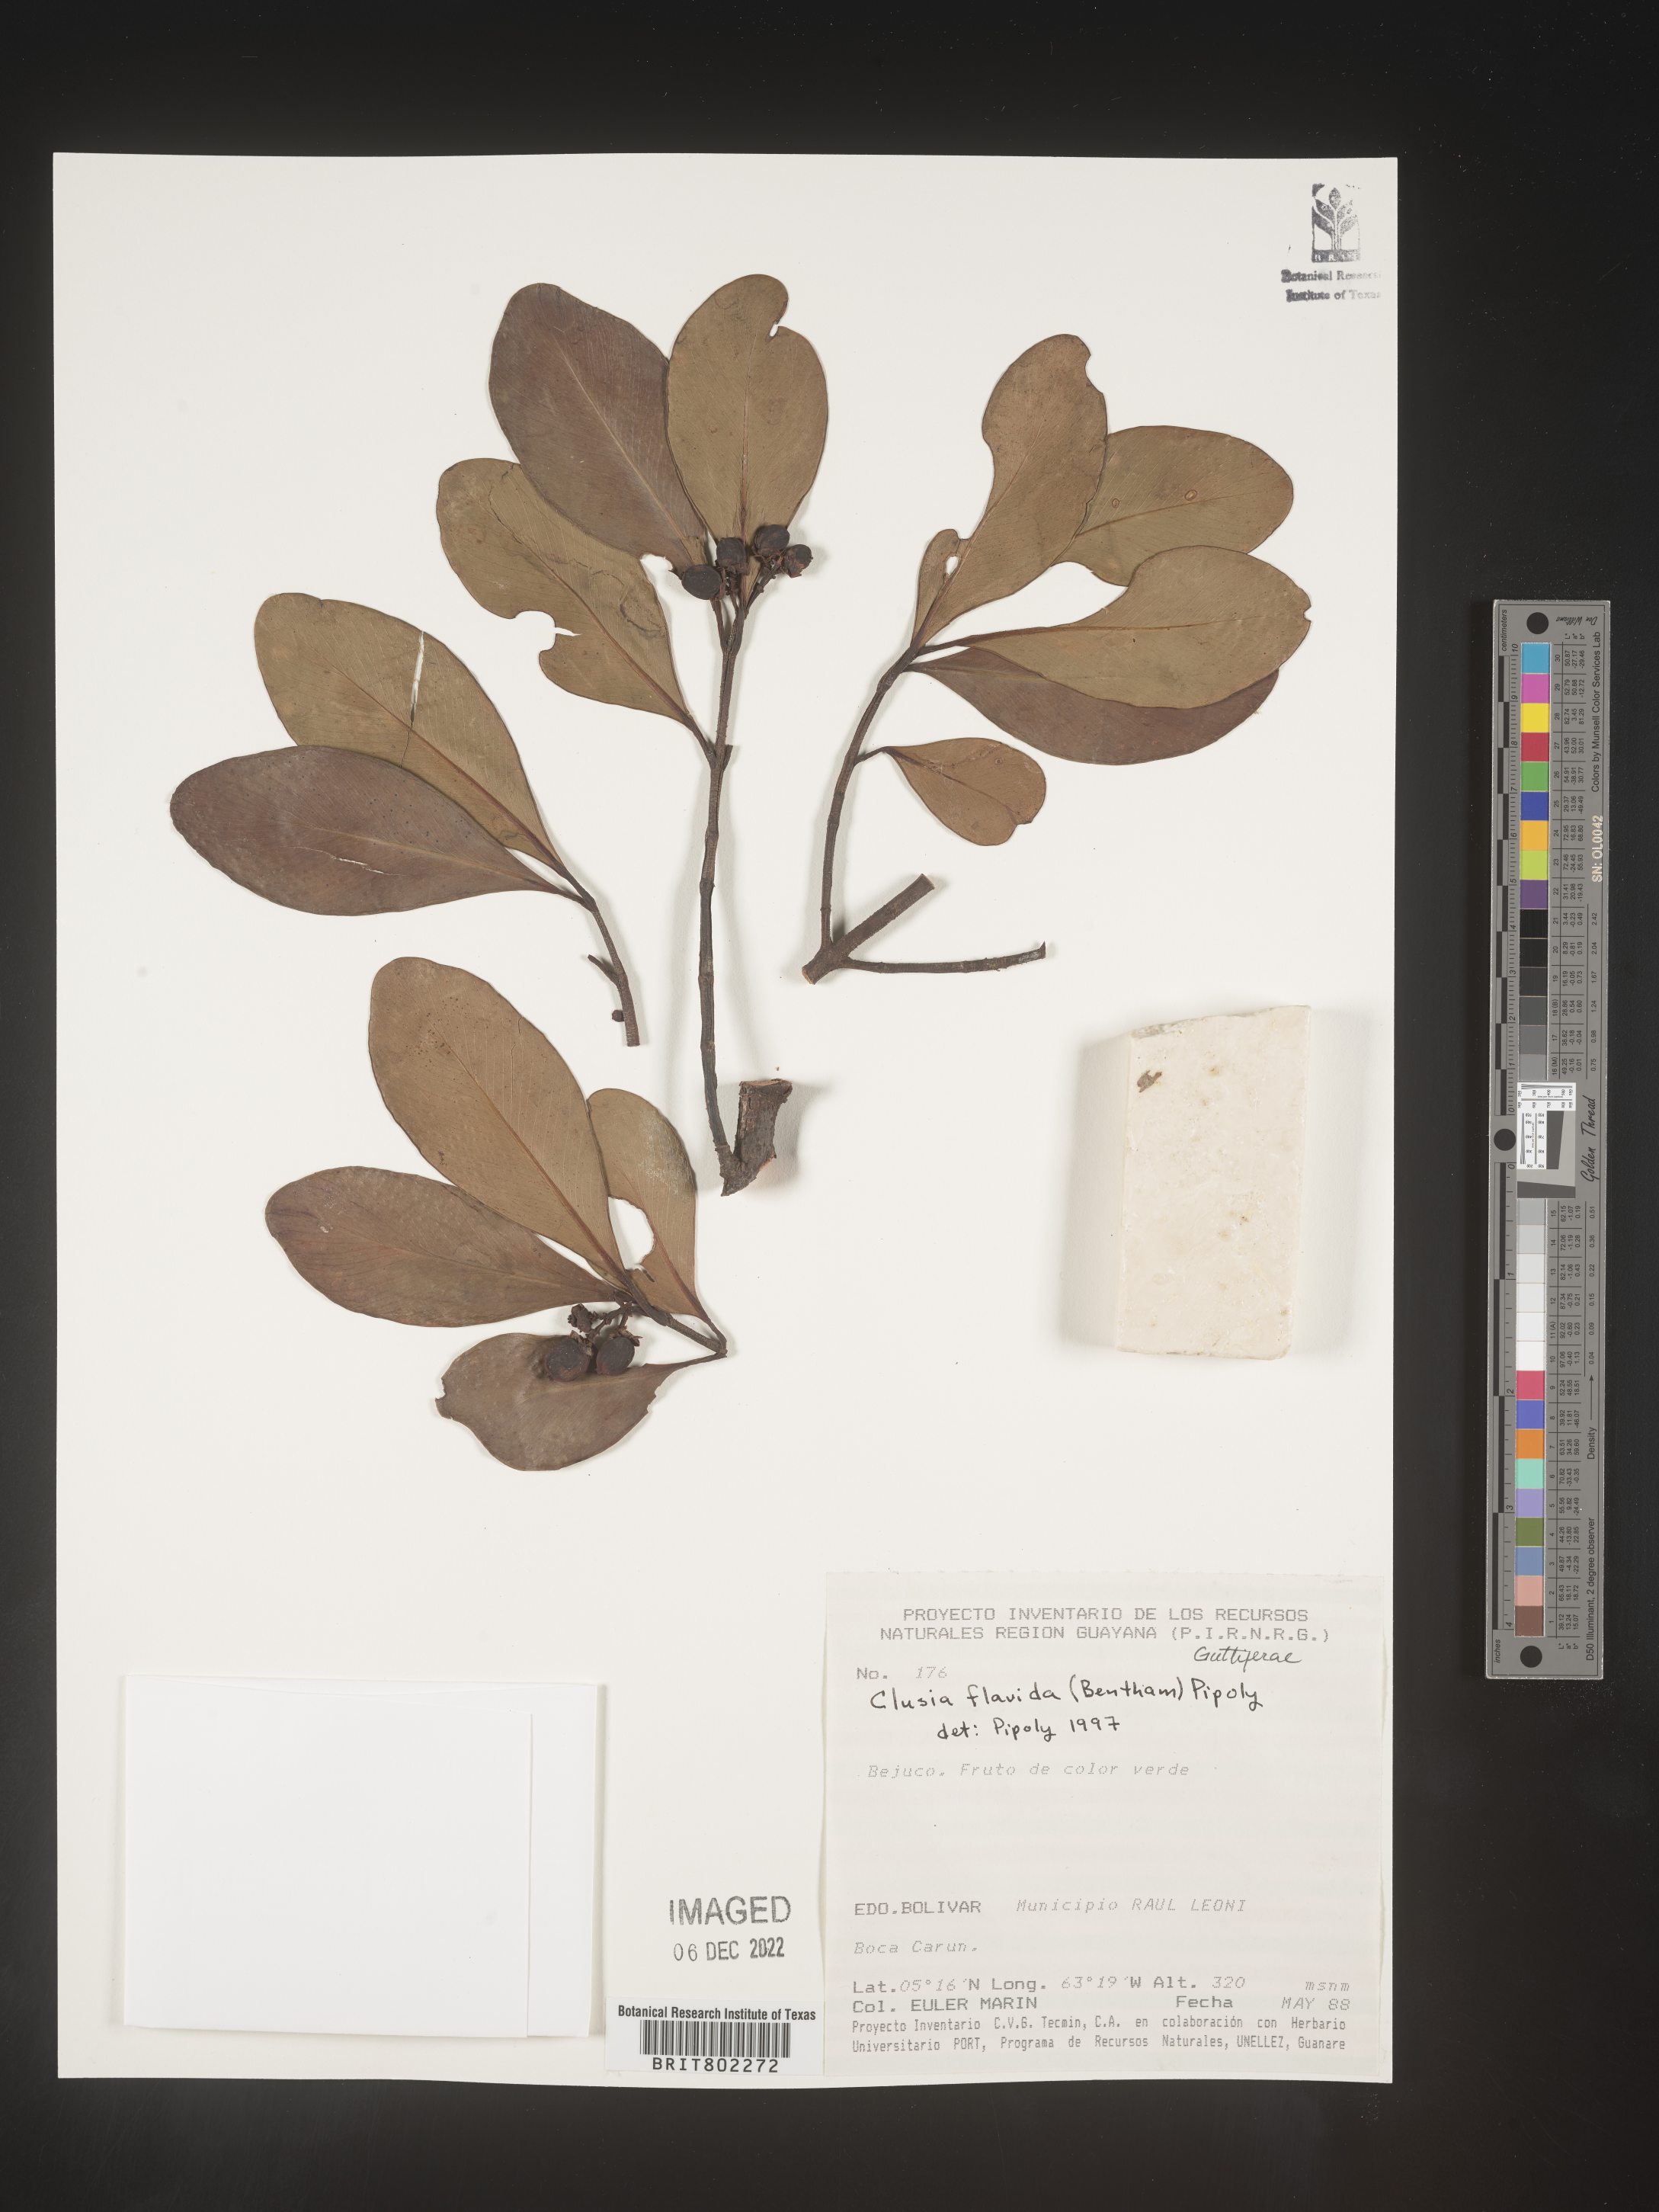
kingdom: Plantae
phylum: Tracheophyta
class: Magnoliopsida
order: Malpighiales
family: Clusiaceae
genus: Clusia
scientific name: Clusia flavida
